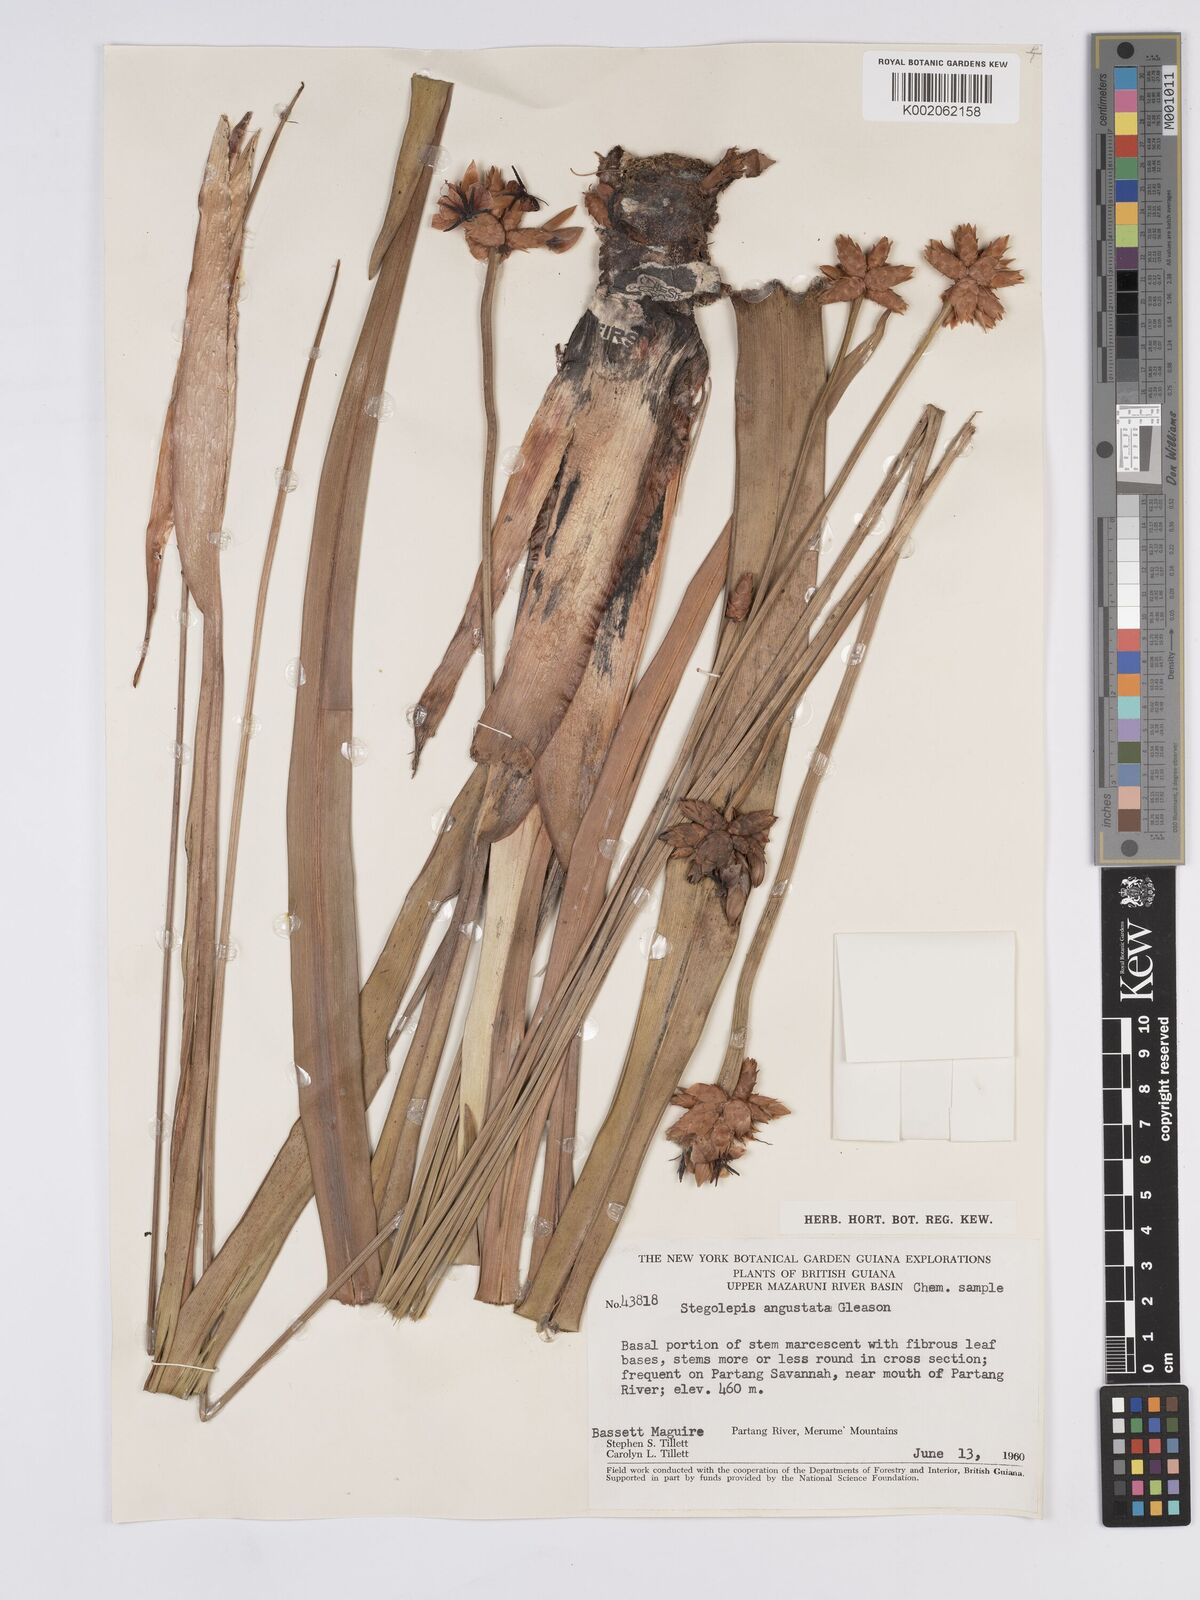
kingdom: Plantae
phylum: Tracheophyta
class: Liliopsida
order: Poales
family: Rapateaceae
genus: Stegolepis
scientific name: Stegolepis angustata
